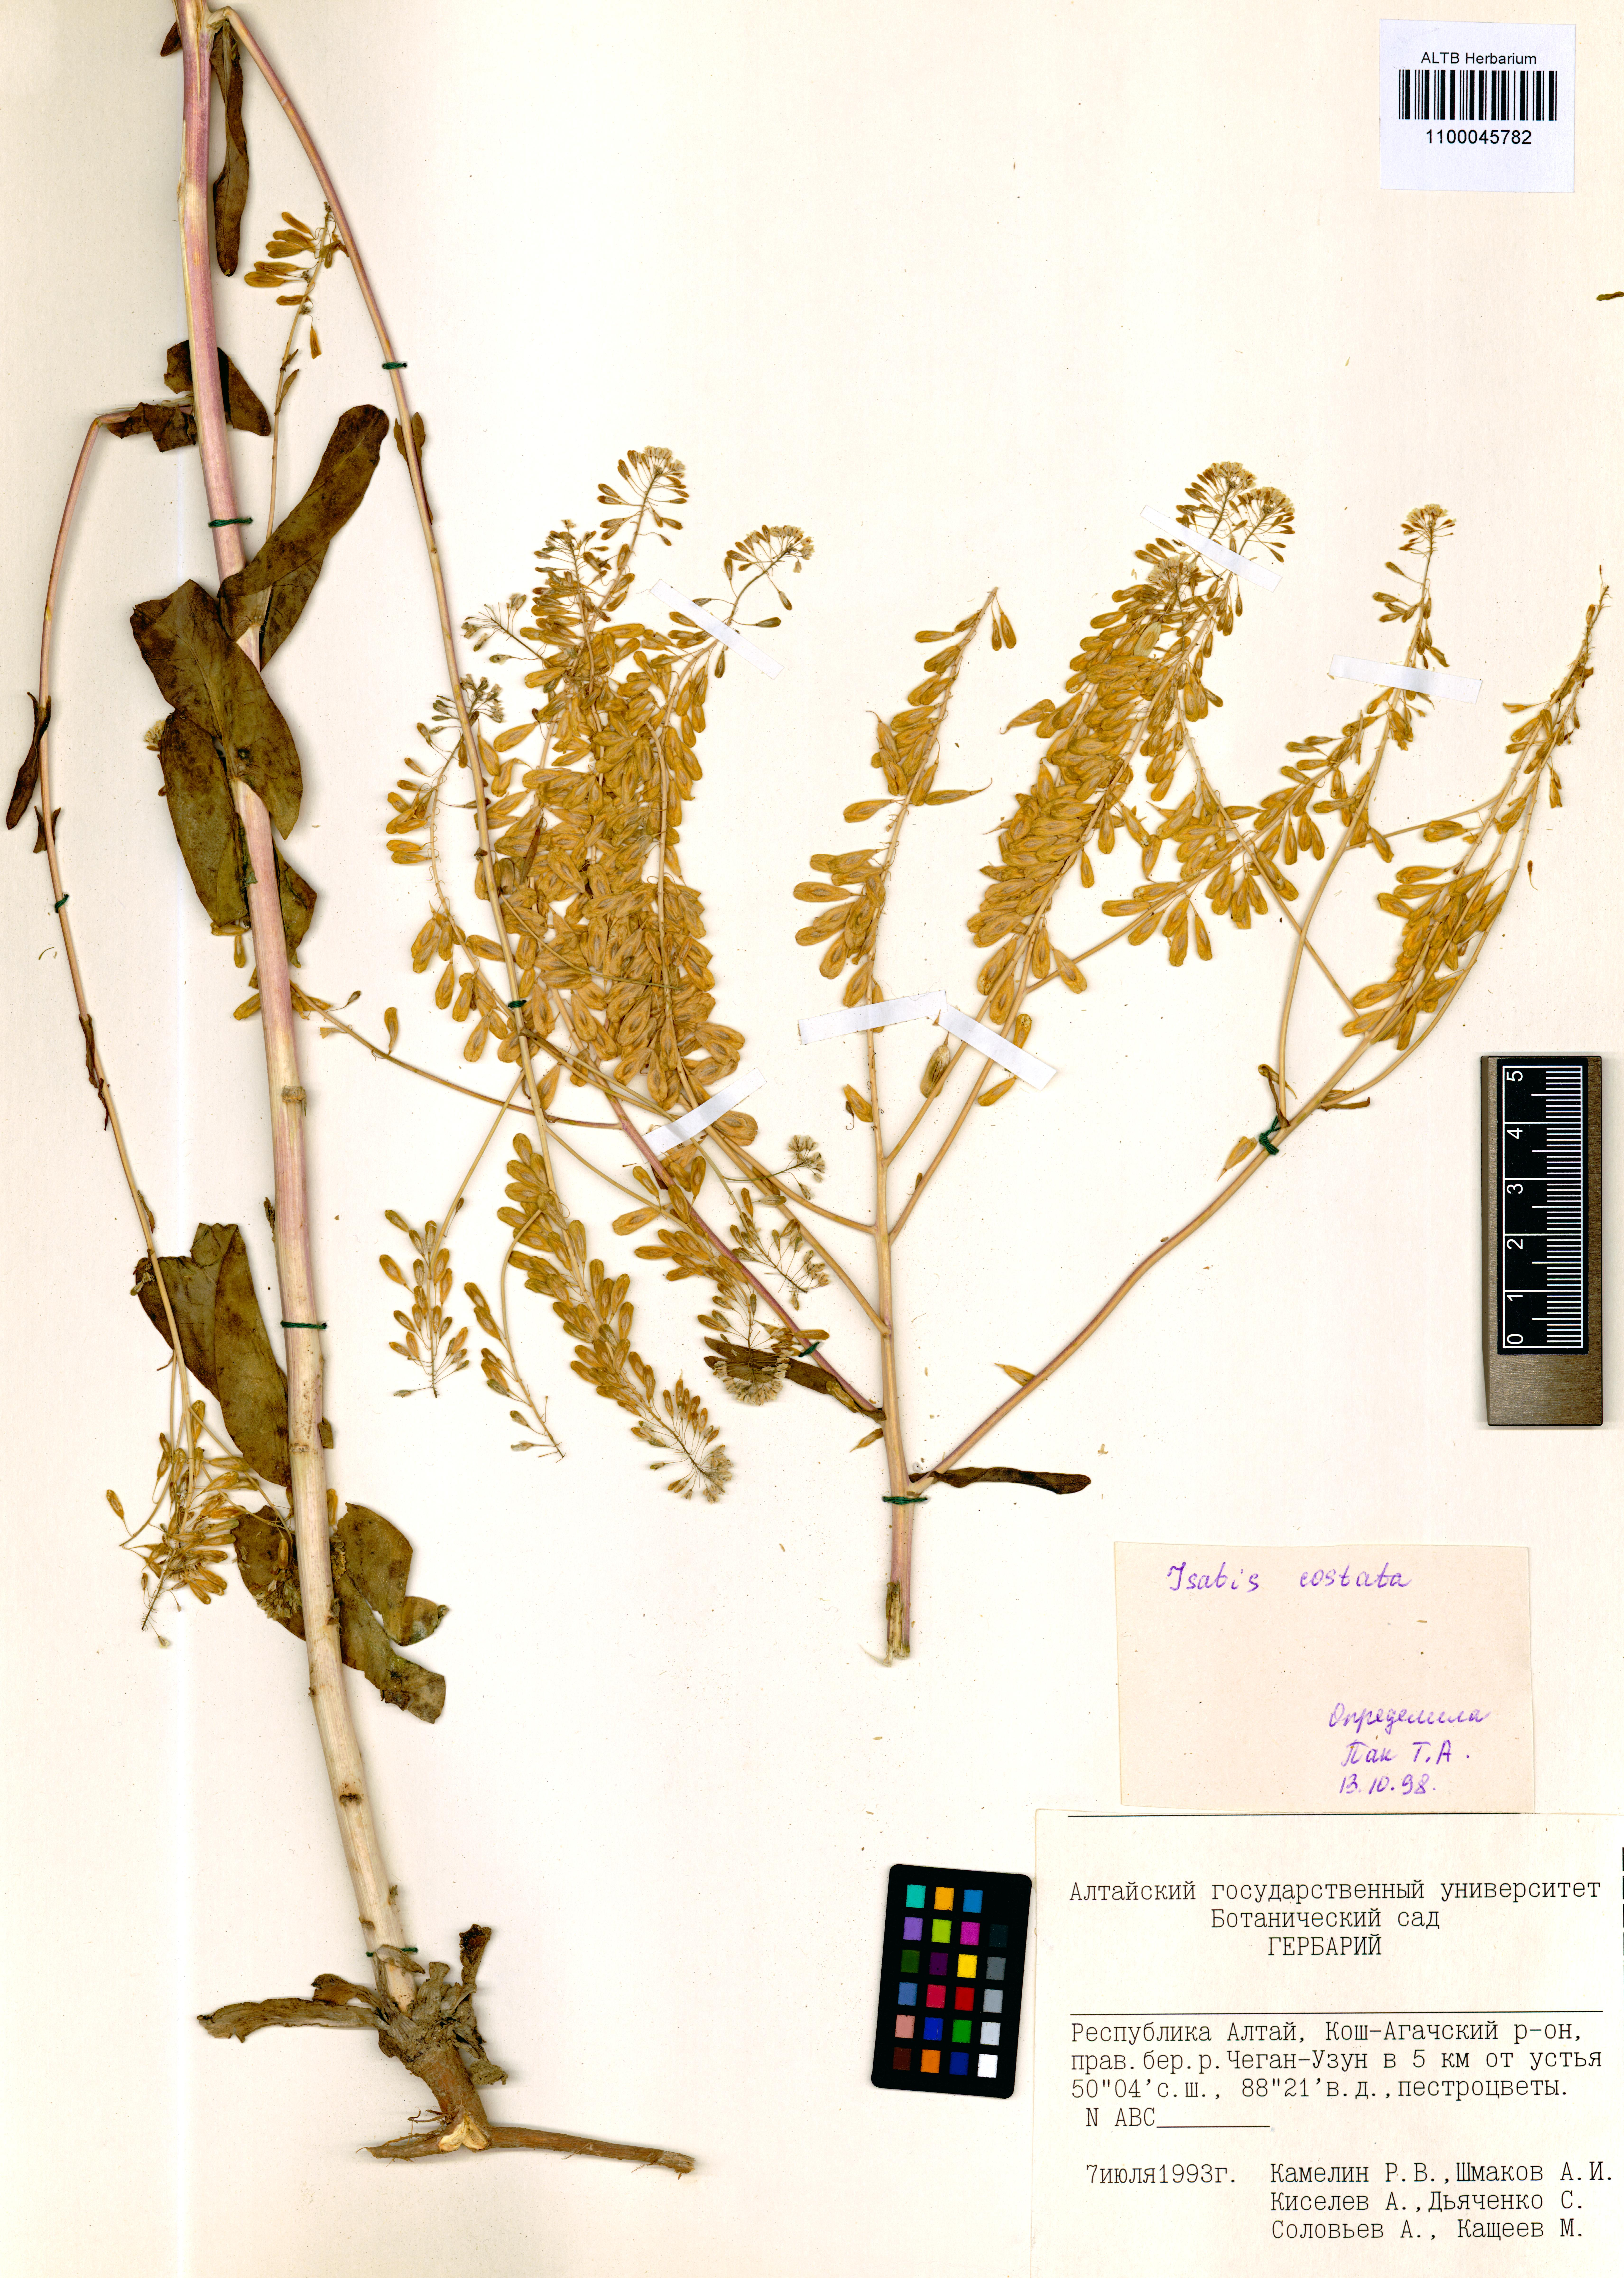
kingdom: Plantae
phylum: Tracheophyta
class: Magnoliopsida
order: Brassicales
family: Brassicaceae
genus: Isatis
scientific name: Isatis costata
